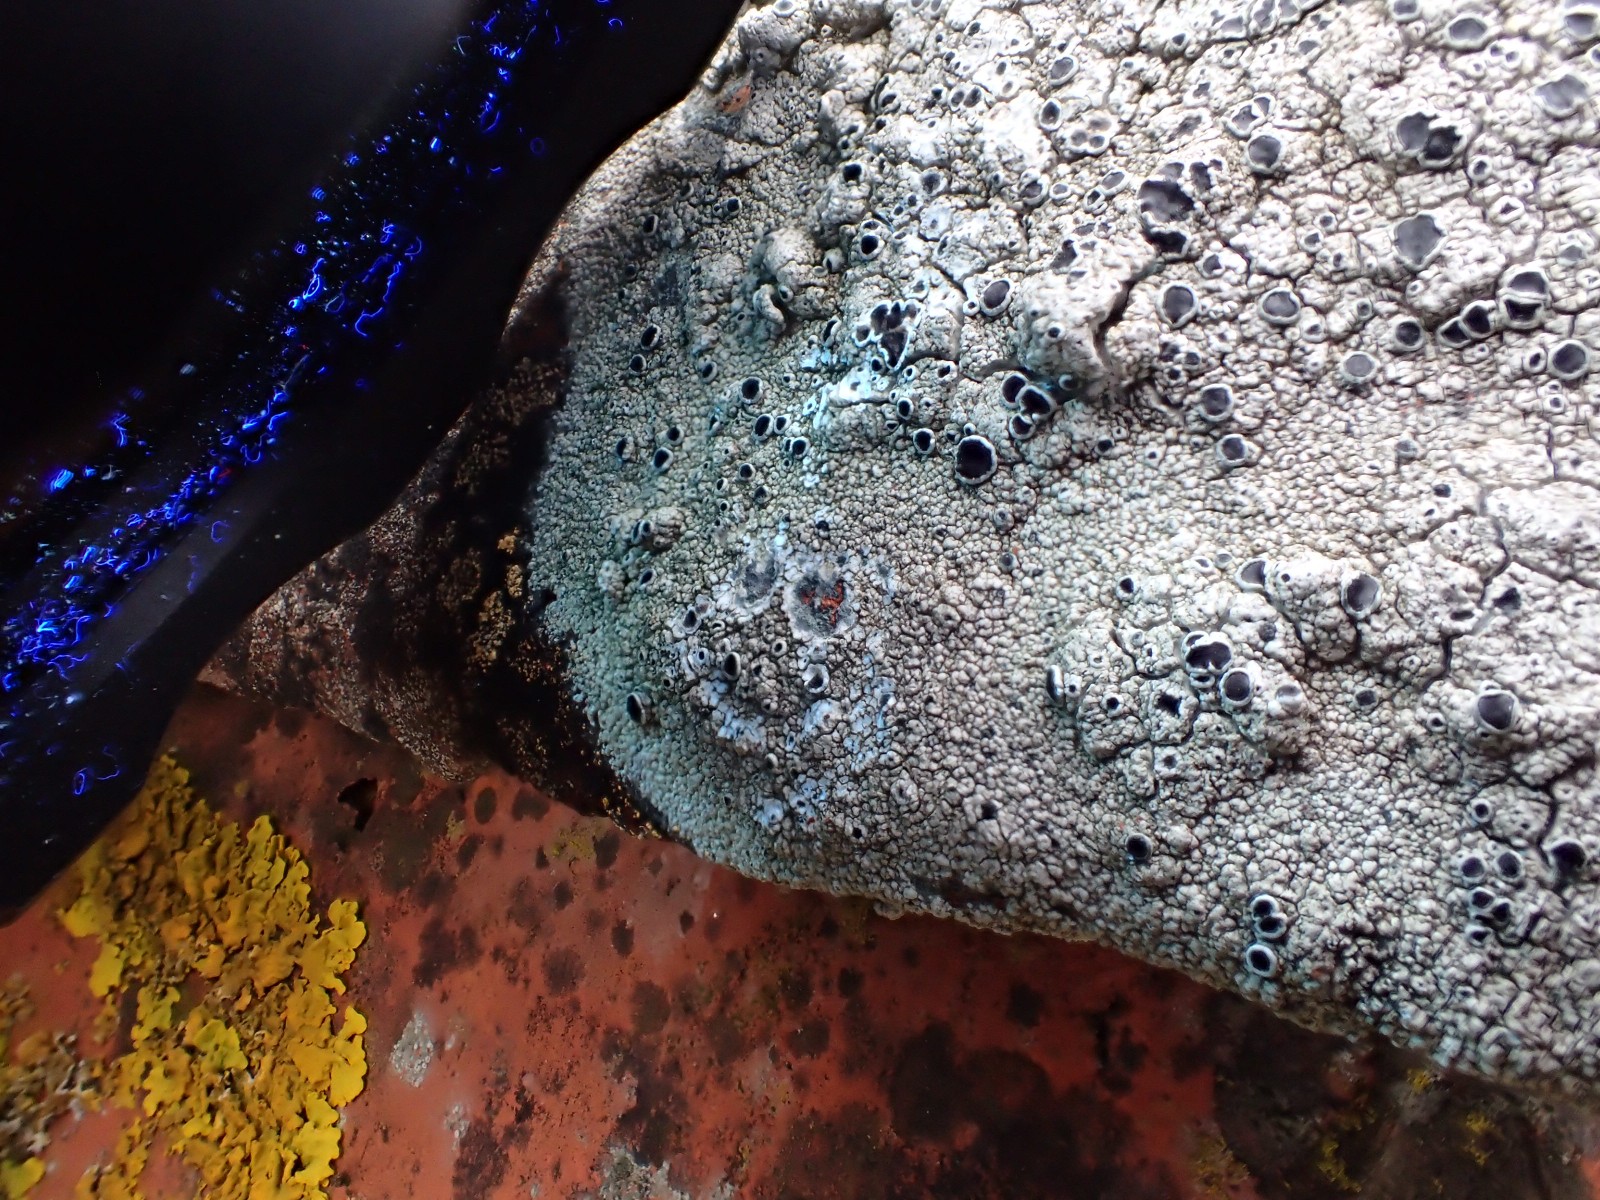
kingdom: Fungi
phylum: Ascomycota
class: Lecanoromycetes
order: Lecanorales
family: Tephromelataceae
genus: Tephromela
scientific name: Tephromela atra
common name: sortfrugtet kantskivelav
